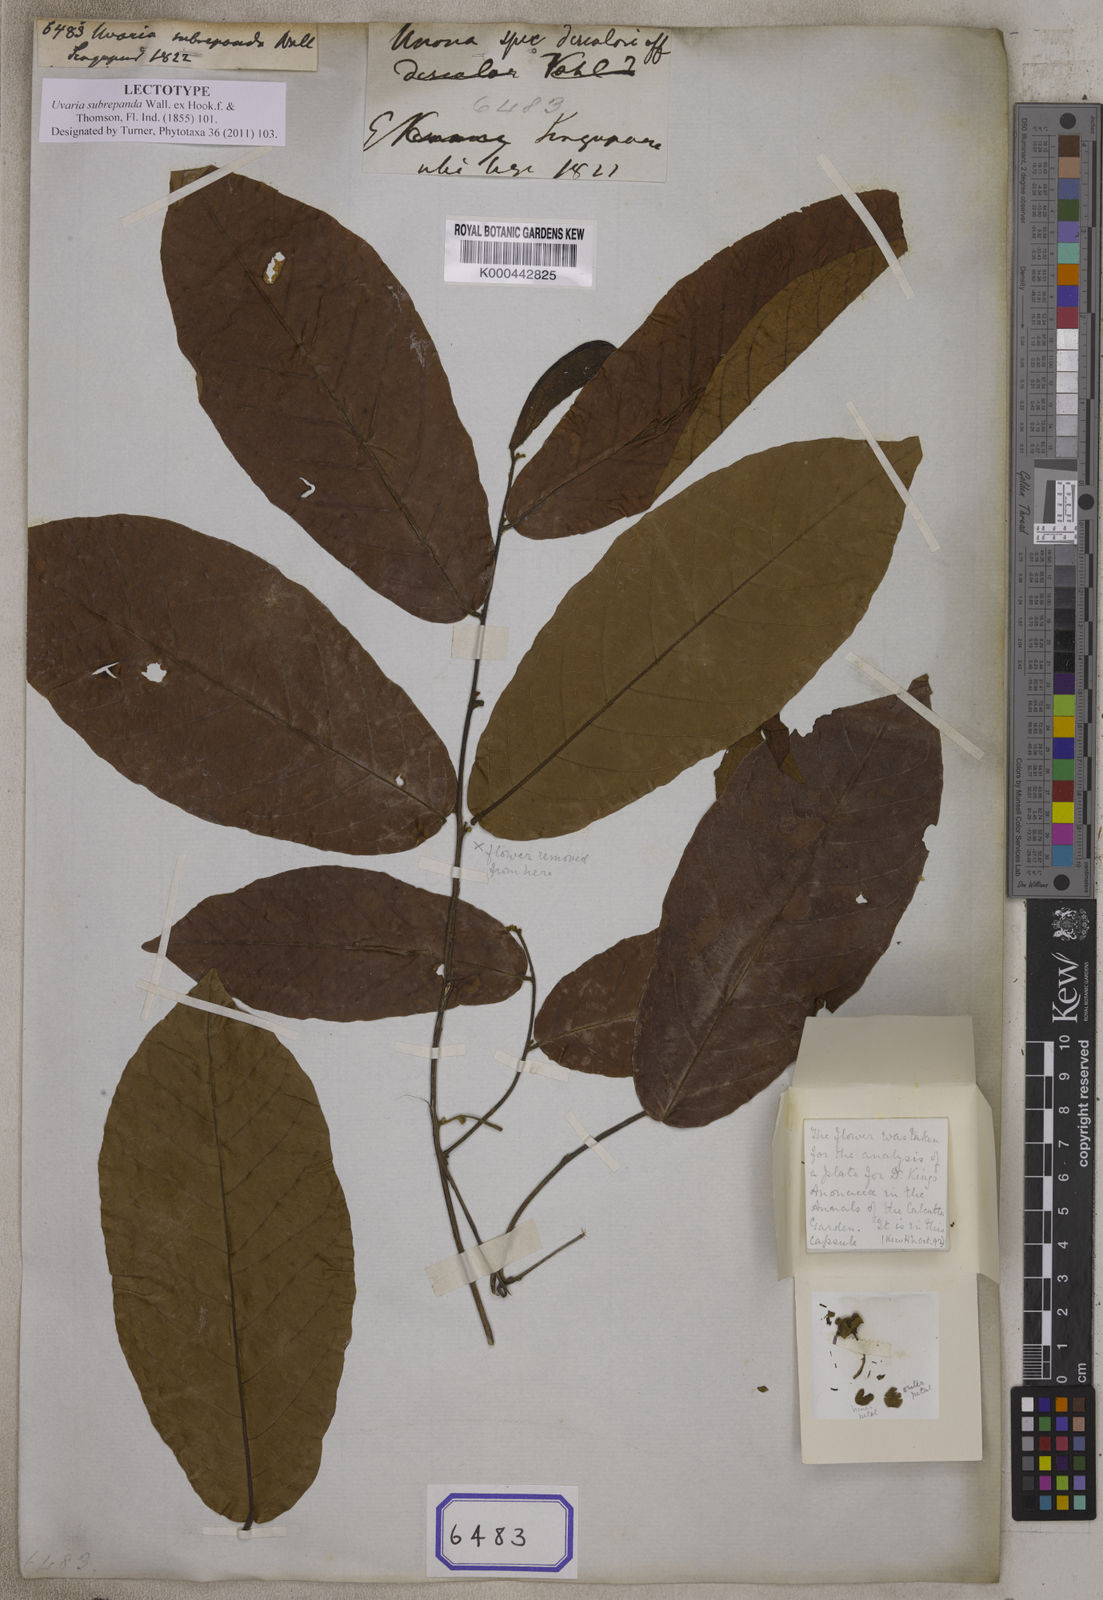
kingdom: Plantae
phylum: Tracheophyta
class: Magnoliopsida
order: Magnoliales
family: Annonaceae
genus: Uvaria
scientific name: Uvaria
